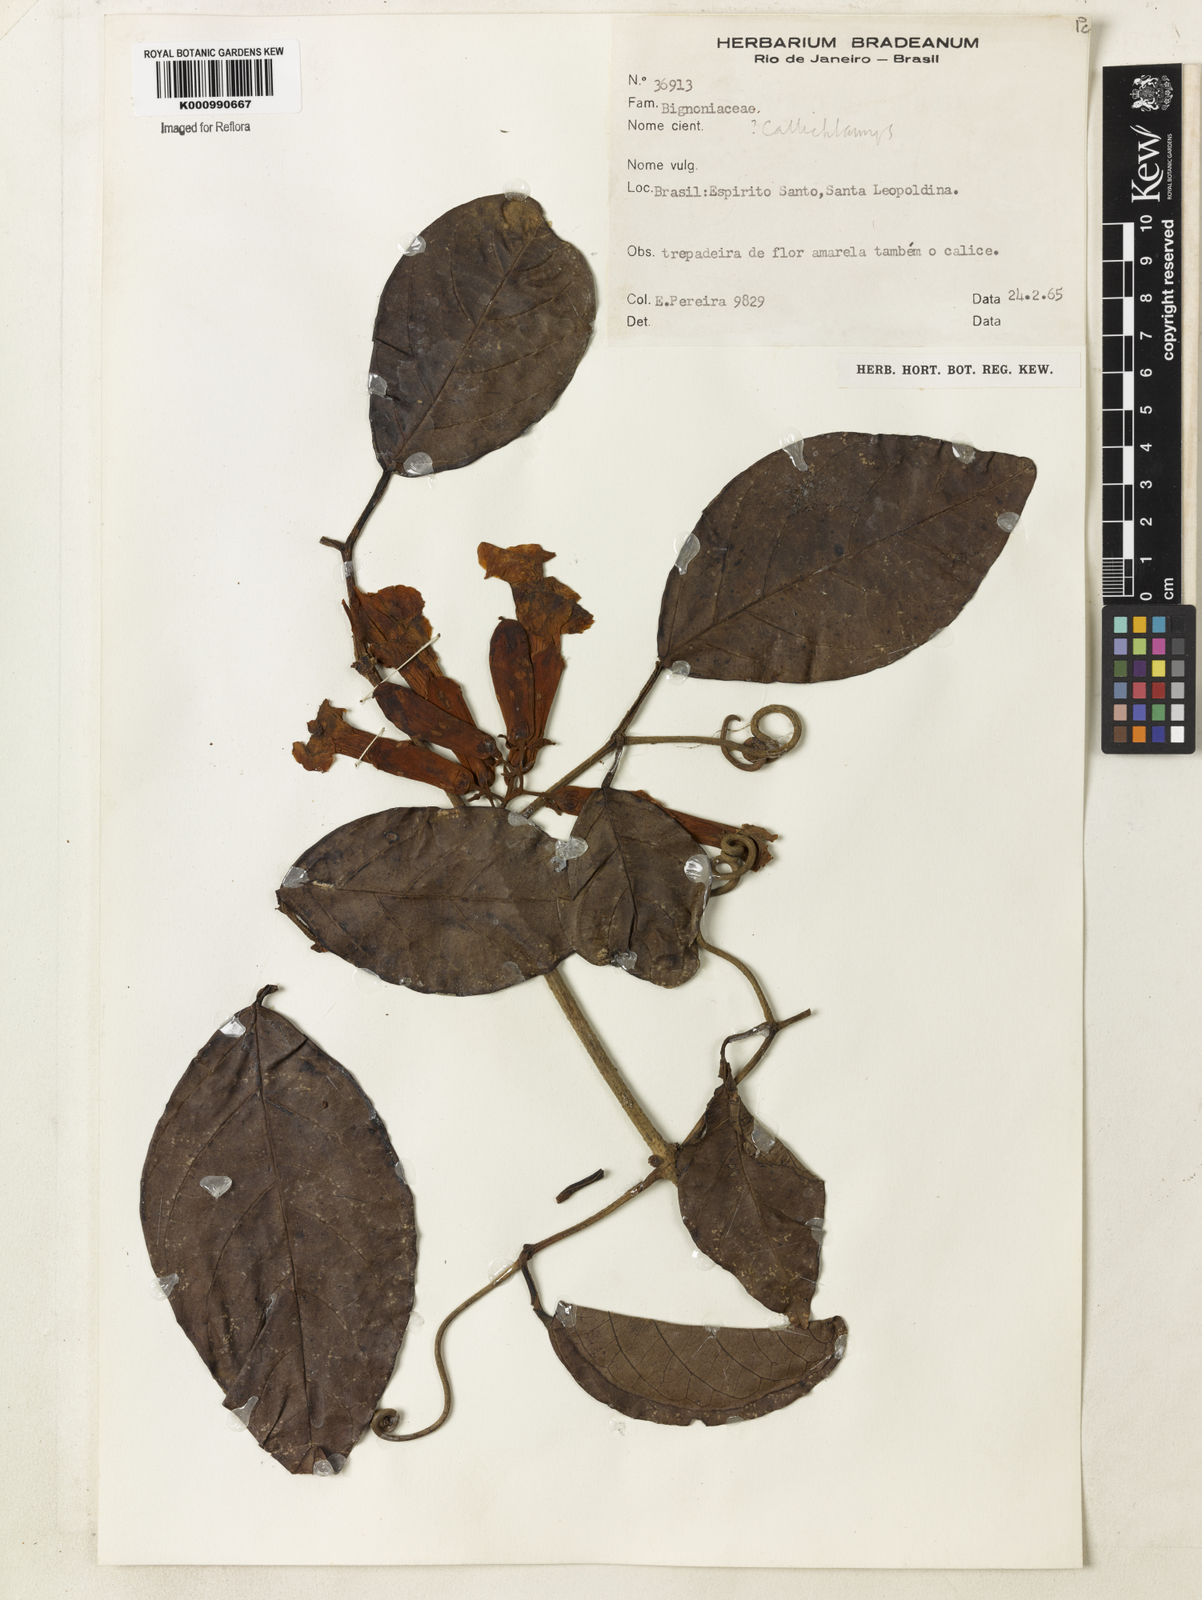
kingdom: Plantae
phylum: Tracheophyta
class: Magnoliopsida
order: Lamiales
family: Bignoniaceae
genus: Callichlamys
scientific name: Callichlamys latifolia
